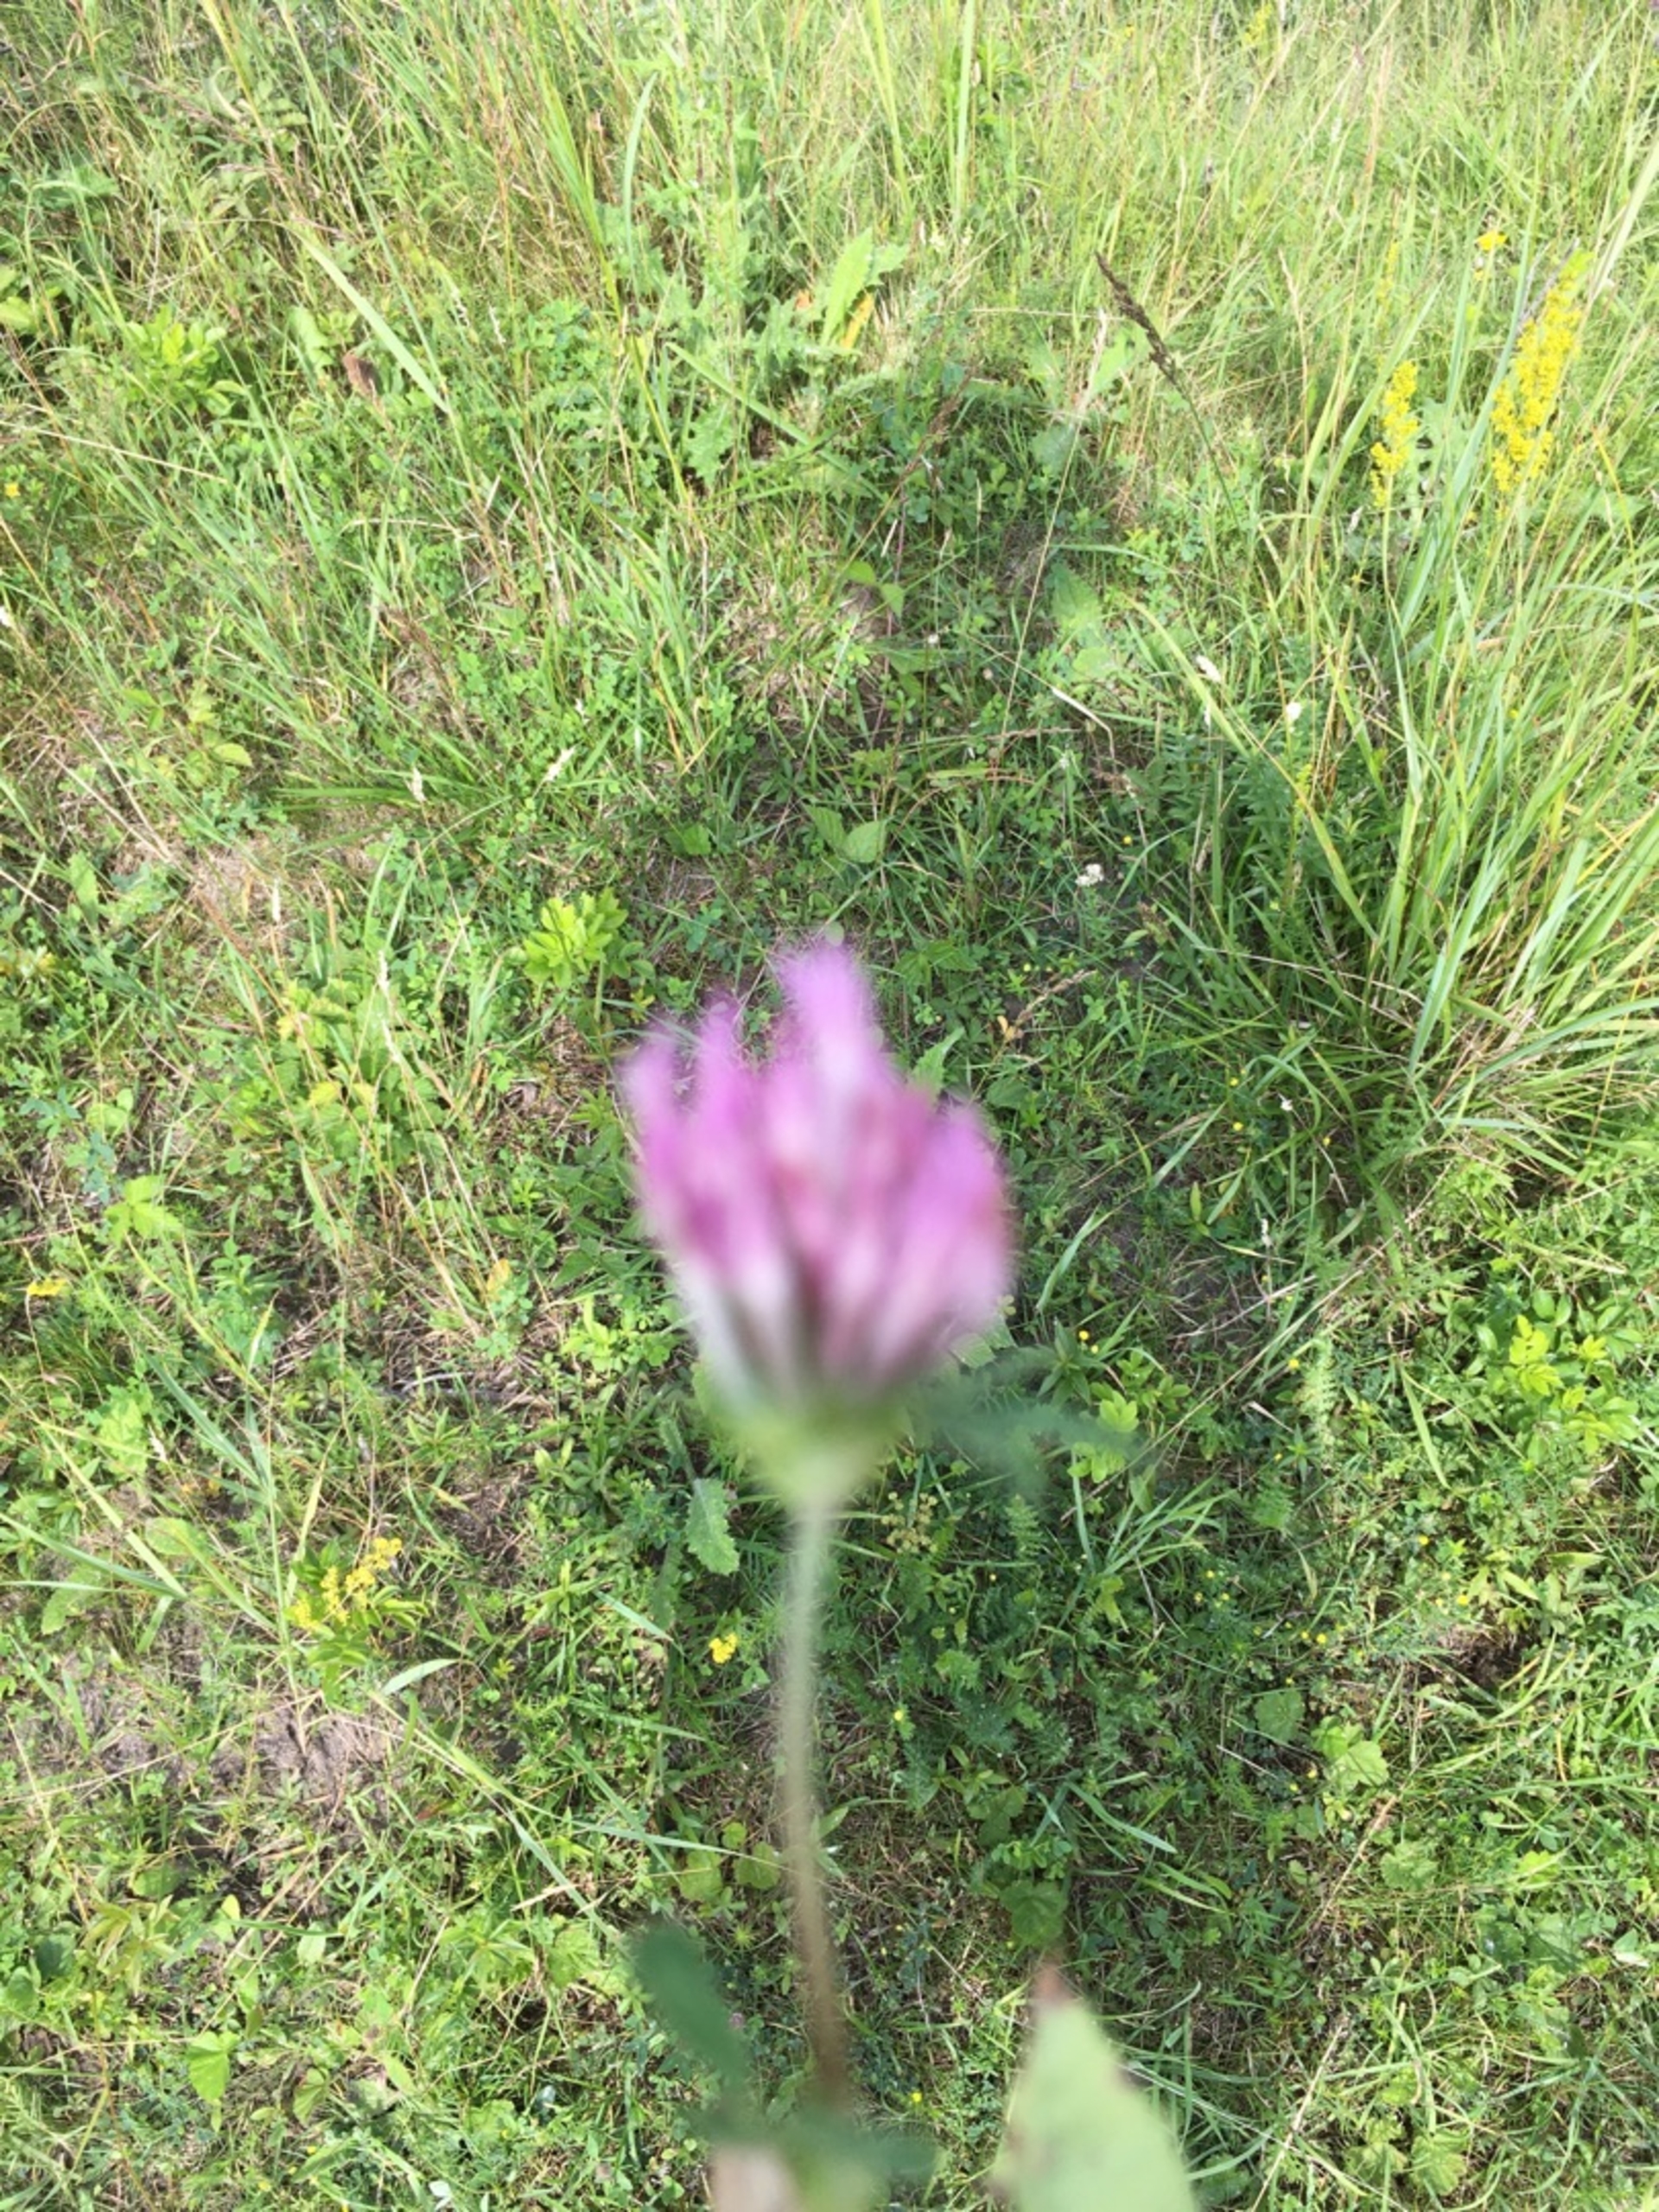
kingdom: Plantae
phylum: Tracheophyta
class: Magnoliopsida
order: Fabales
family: Fabaceae
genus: Trifolium
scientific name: Trifolium pratense
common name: Rød-kløver
